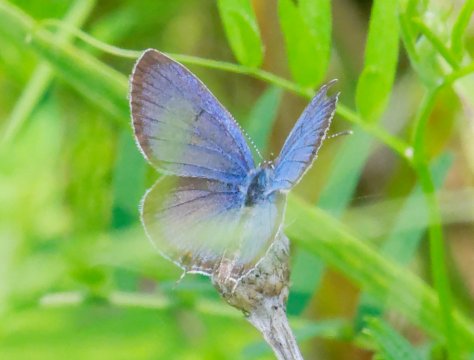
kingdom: Animalia
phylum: Arthropoda
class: Insecta
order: Lepidoptera
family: Lycaenidae
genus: Elkalyce
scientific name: Elkalyce comyntas
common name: Eastern Tailed-Blue
